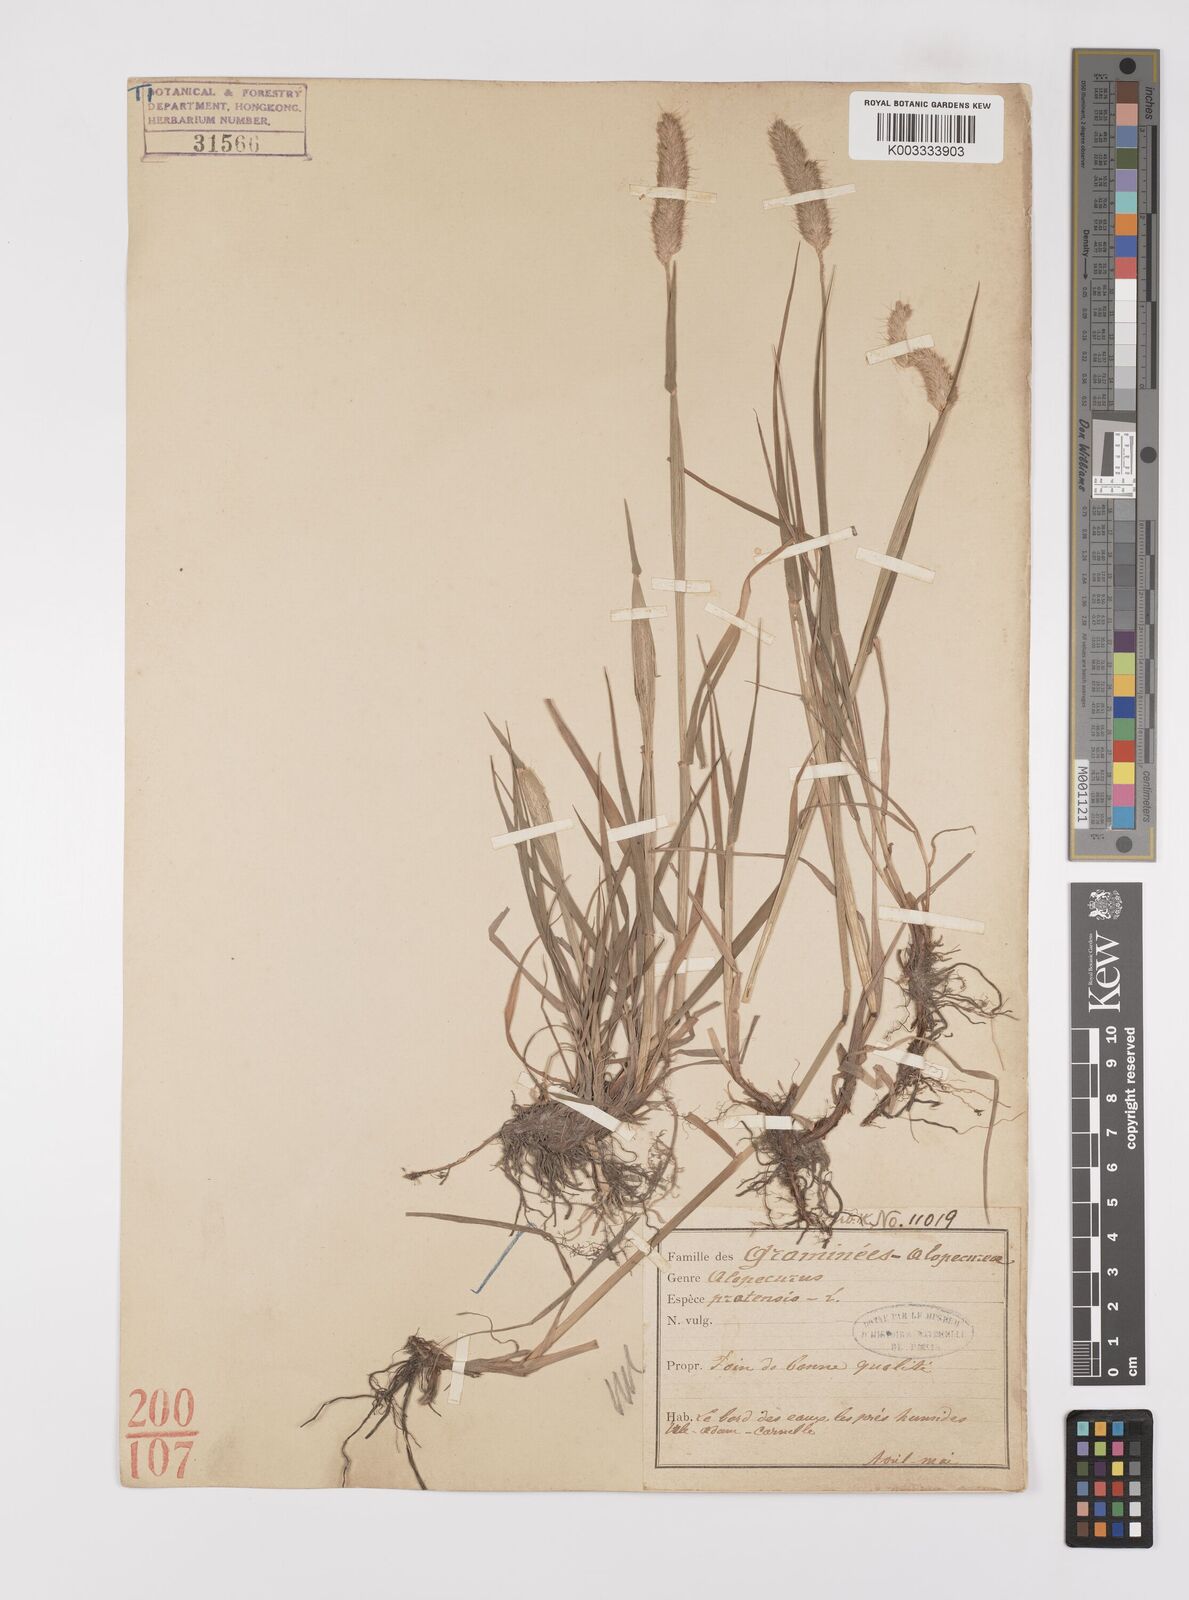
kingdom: Plantae
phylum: Tracheophyta
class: Liliopsida
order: Poales
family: Poaceae
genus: Alopecurus
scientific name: Alopecurus pratensis
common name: Meadow foxtail
